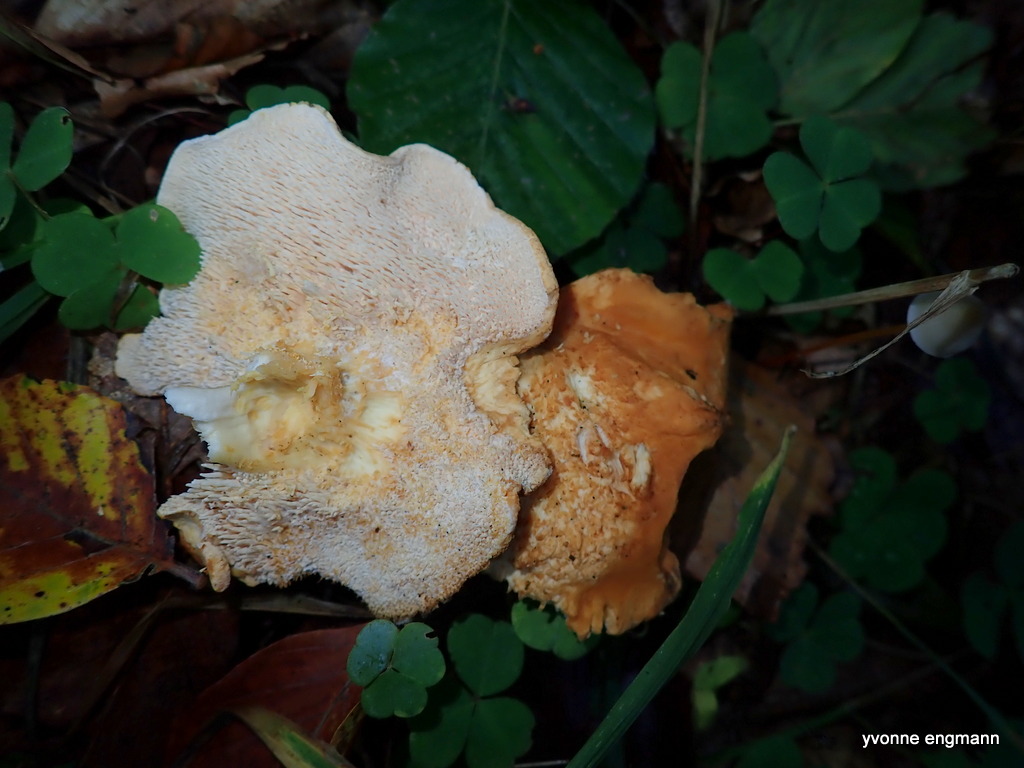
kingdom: Fungi
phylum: Basidiomycota
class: Agaricomycetes
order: Cantharellales
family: Hydnaceae
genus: Hydnum
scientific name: Hydnum
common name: pigsvamp
